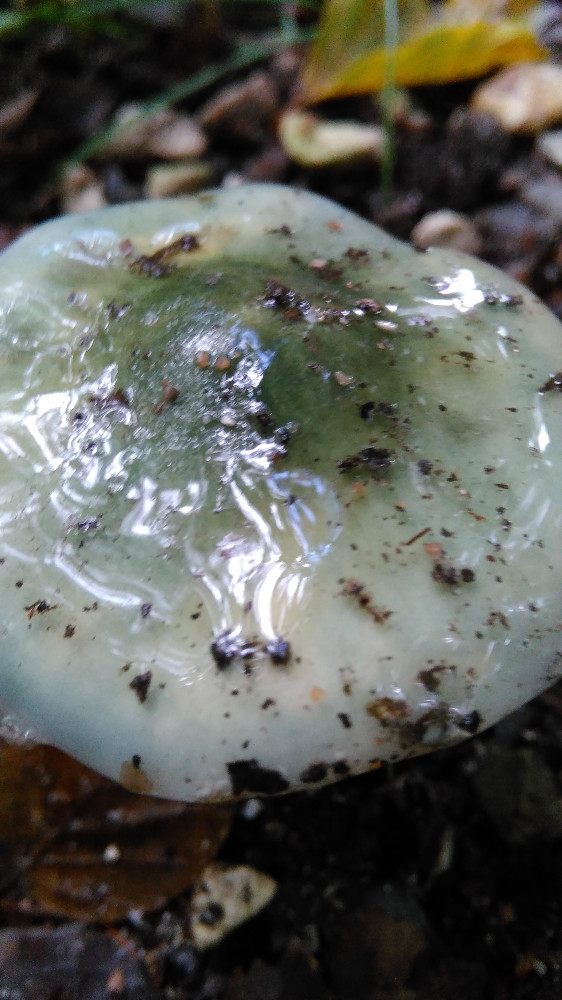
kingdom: Fungi
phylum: Basidiomycota
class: Agaricomycetes
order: Agaricales
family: Strophariaceae
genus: Stropharia
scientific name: Stropharia cyanea
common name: blågrøn bredblad
